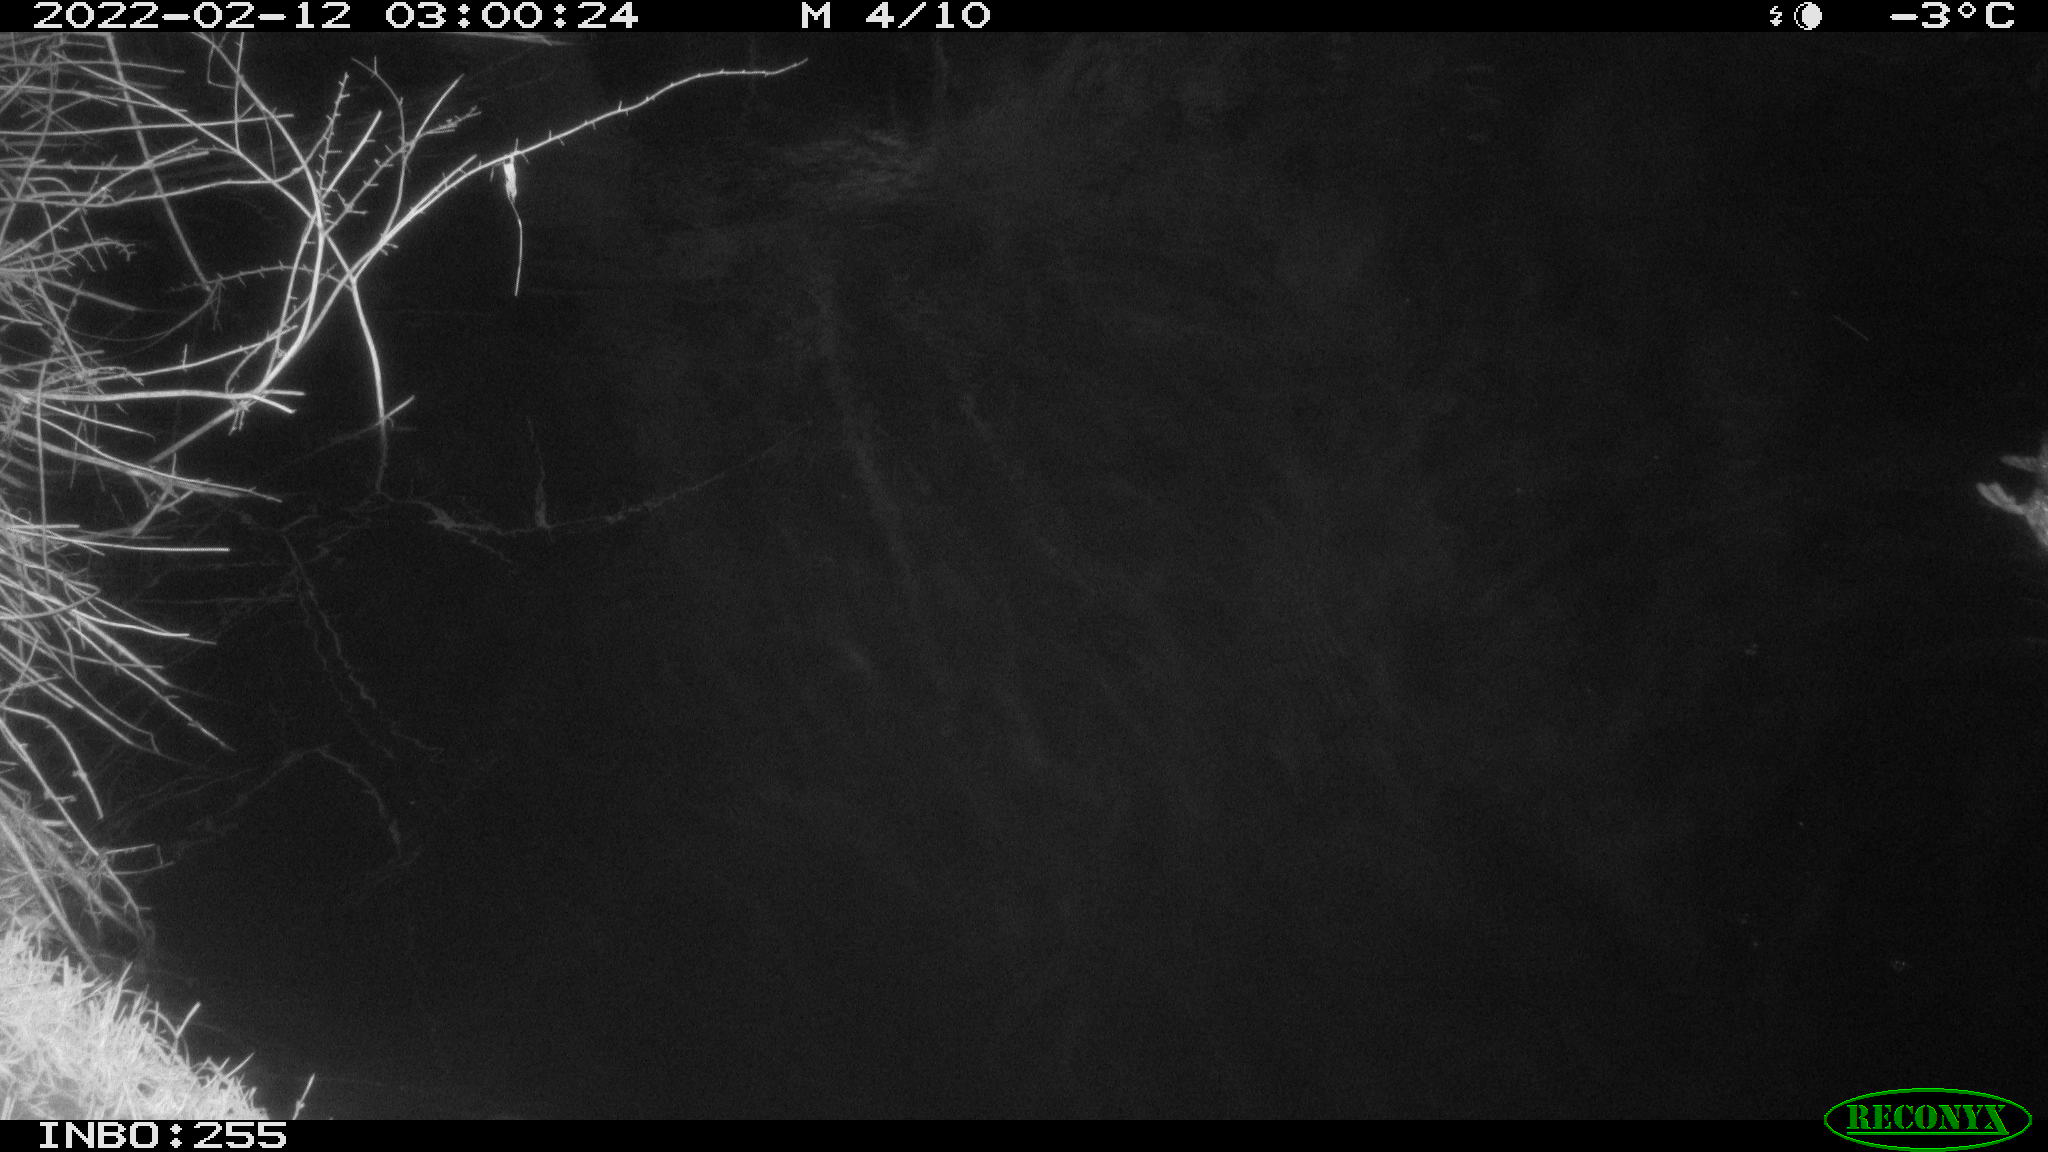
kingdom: Animalia
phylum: Chordata
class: Aves
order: Anseriformes
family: Anatidae
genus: Anas
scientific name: Anas platyrhynchos
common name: Mallard
